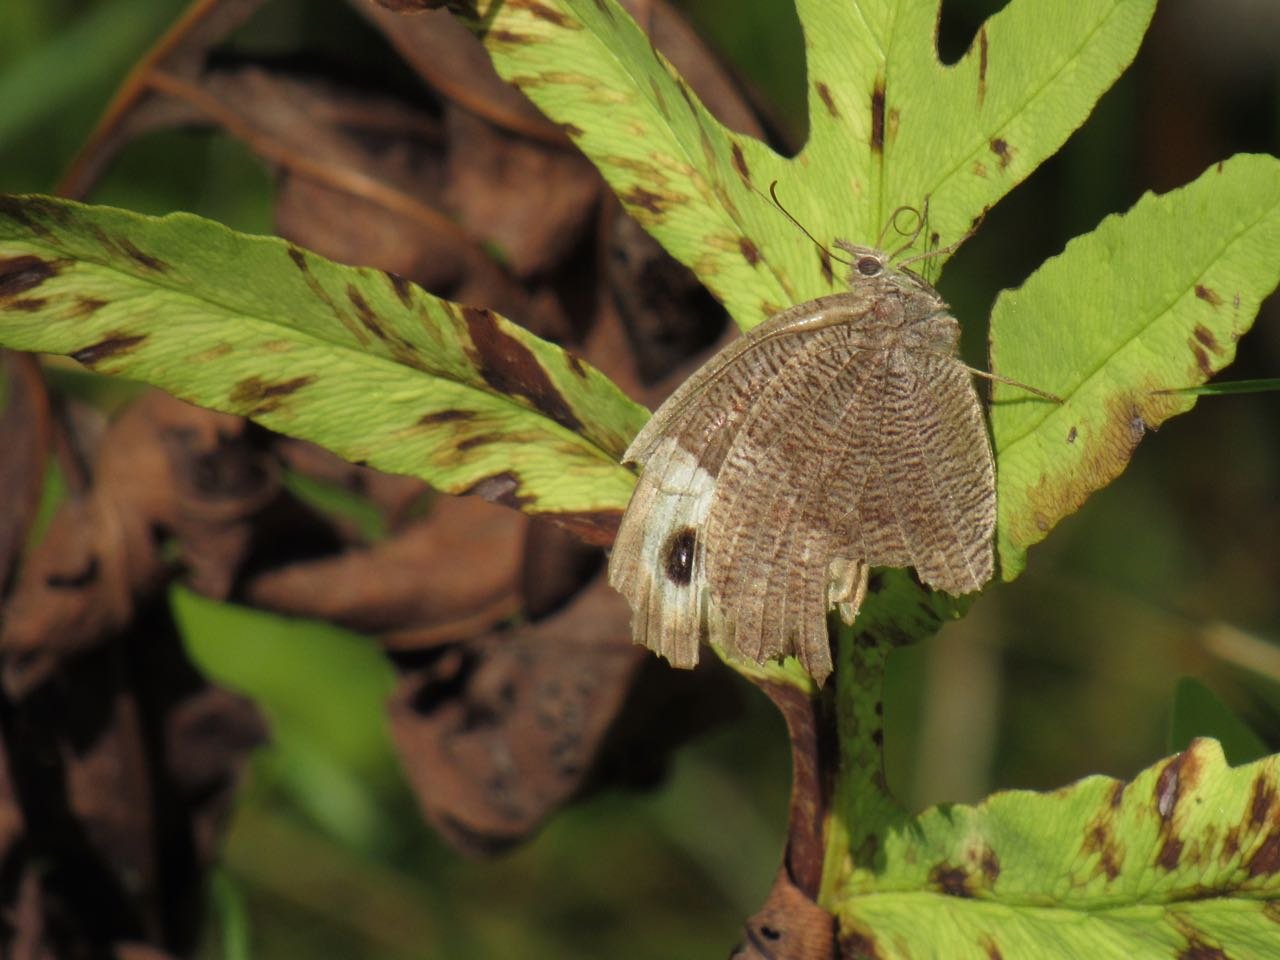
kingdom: Animalia
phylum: Arthropoda
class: Insecta
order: Lepidoptera
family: Nymphalidae
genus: Cercyonis
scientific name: Cercyonis pegala
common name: Common Wood-Nymph
